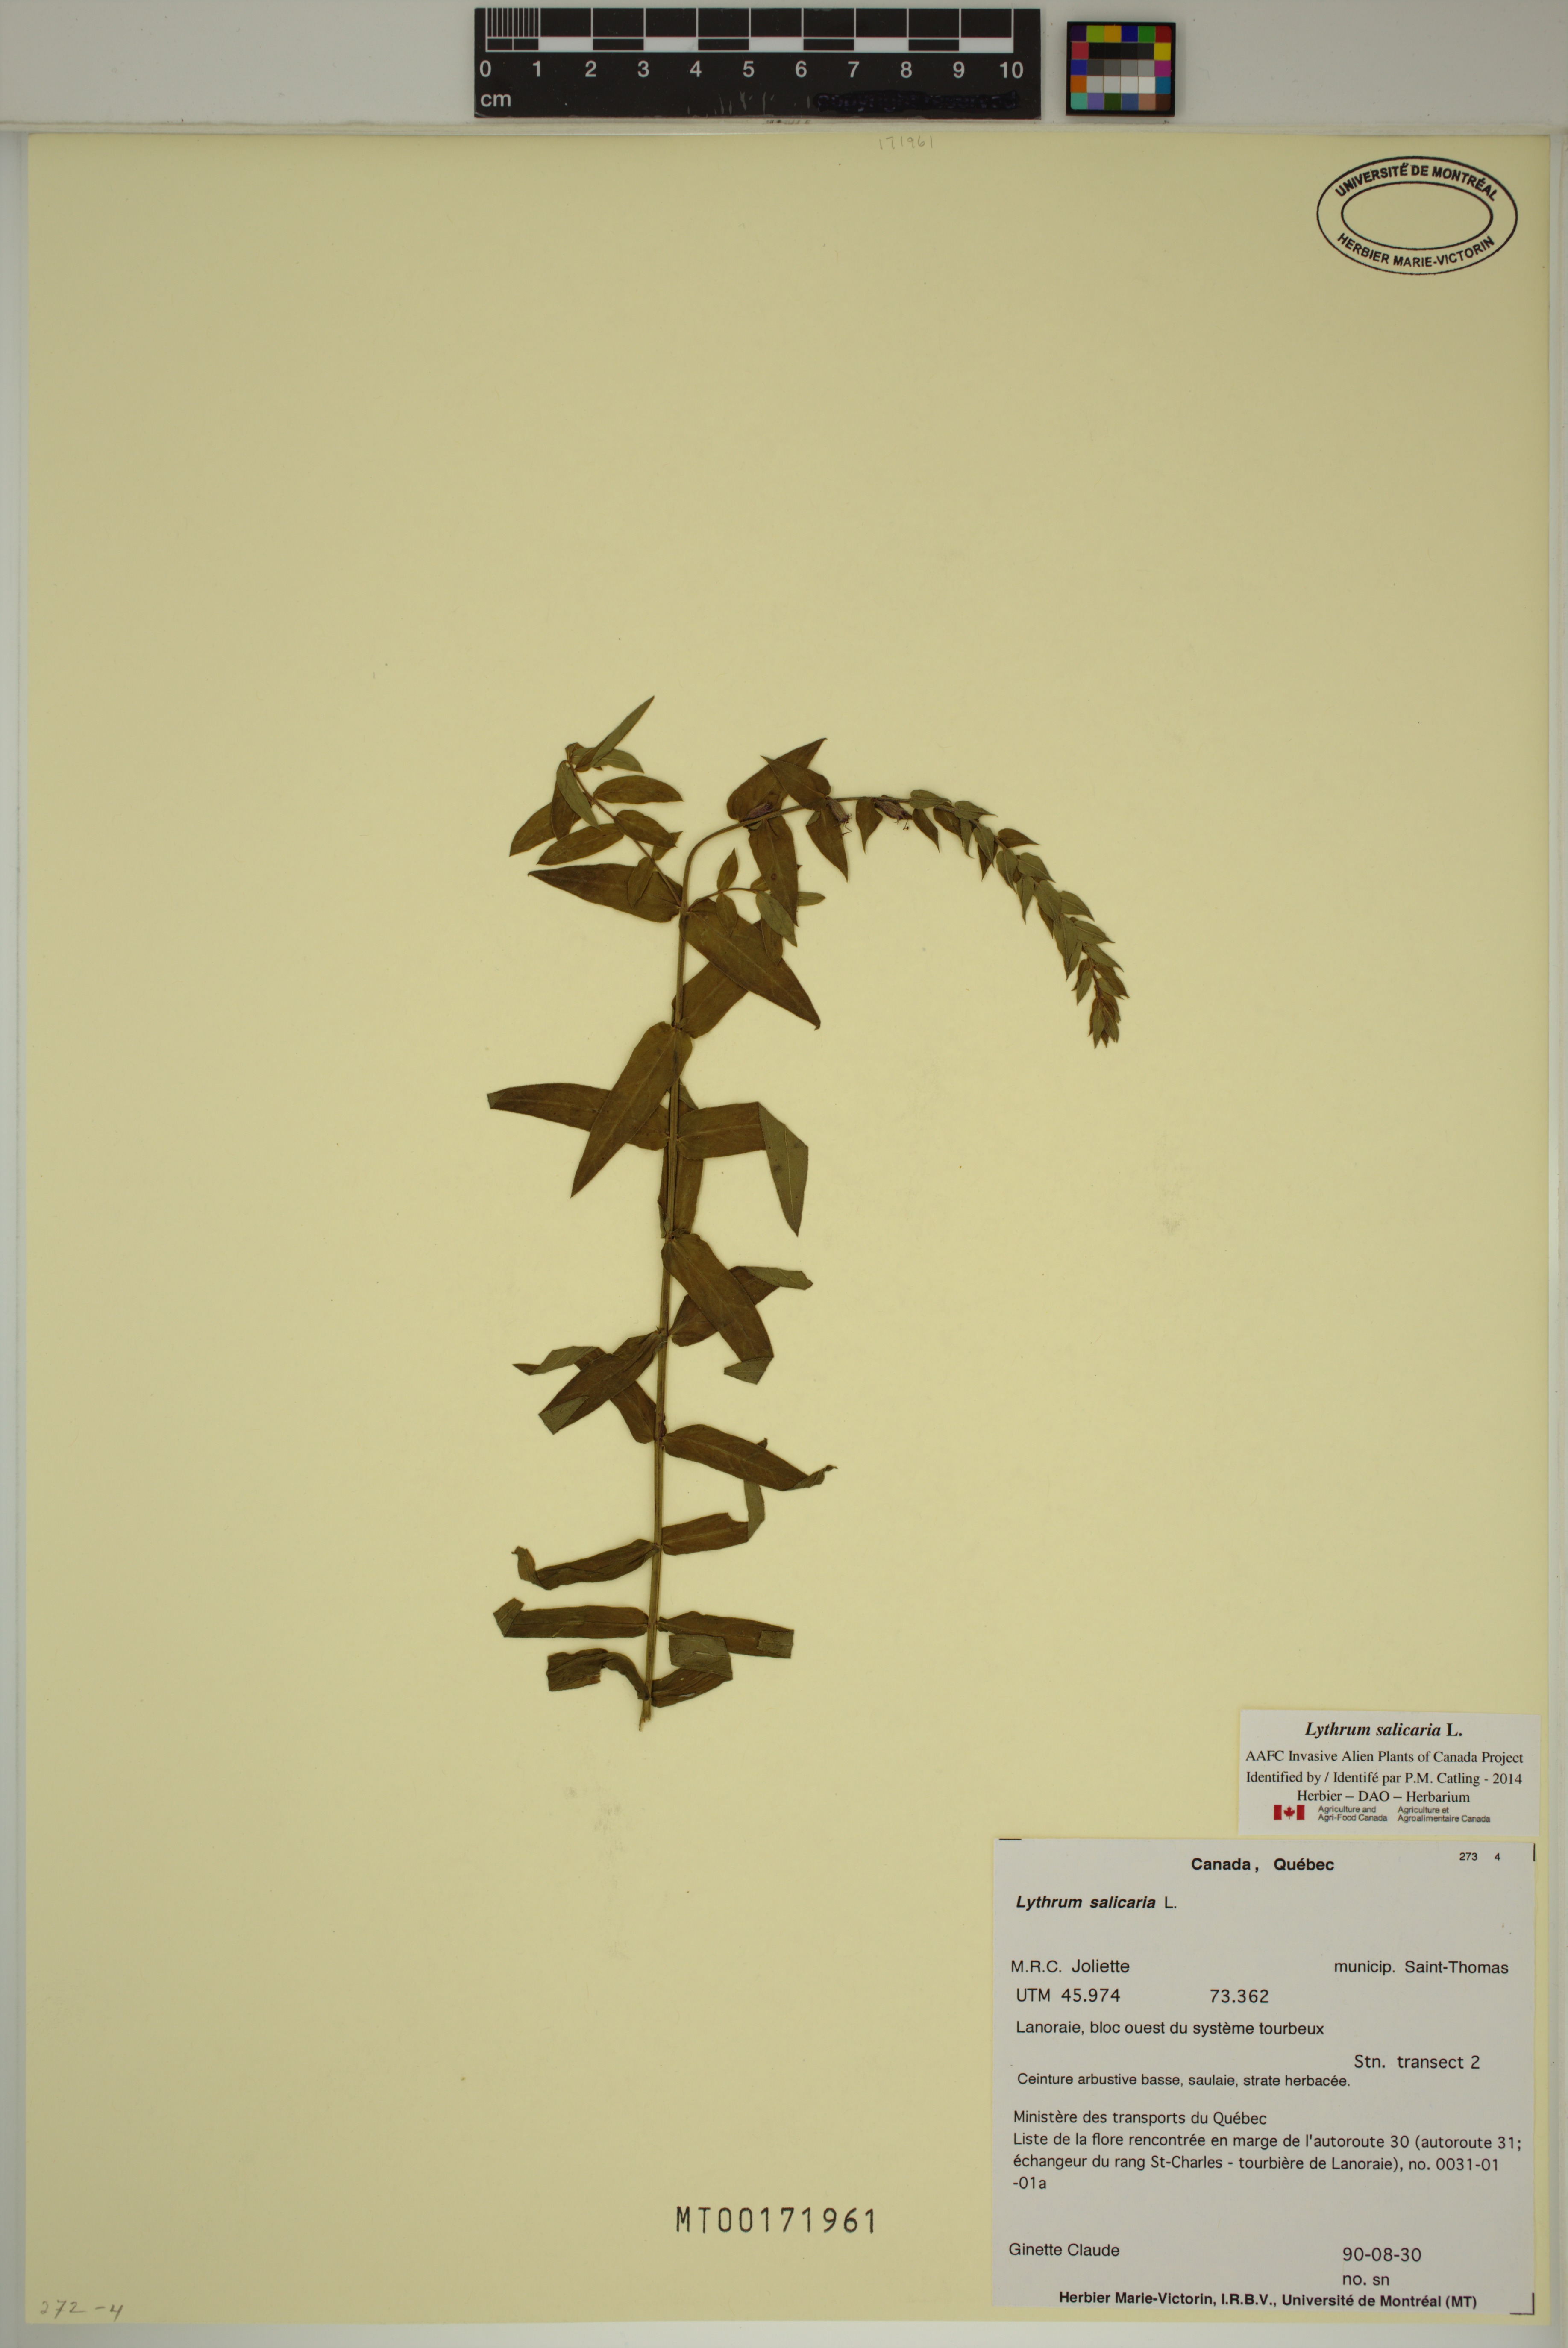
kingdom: Plantae
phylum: Tracheophyta
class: Magnoliopsida
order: Myrtales
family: Lythraceae
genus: Lythrum
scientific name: Lythrum salicaria
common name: Purple loosestrife
